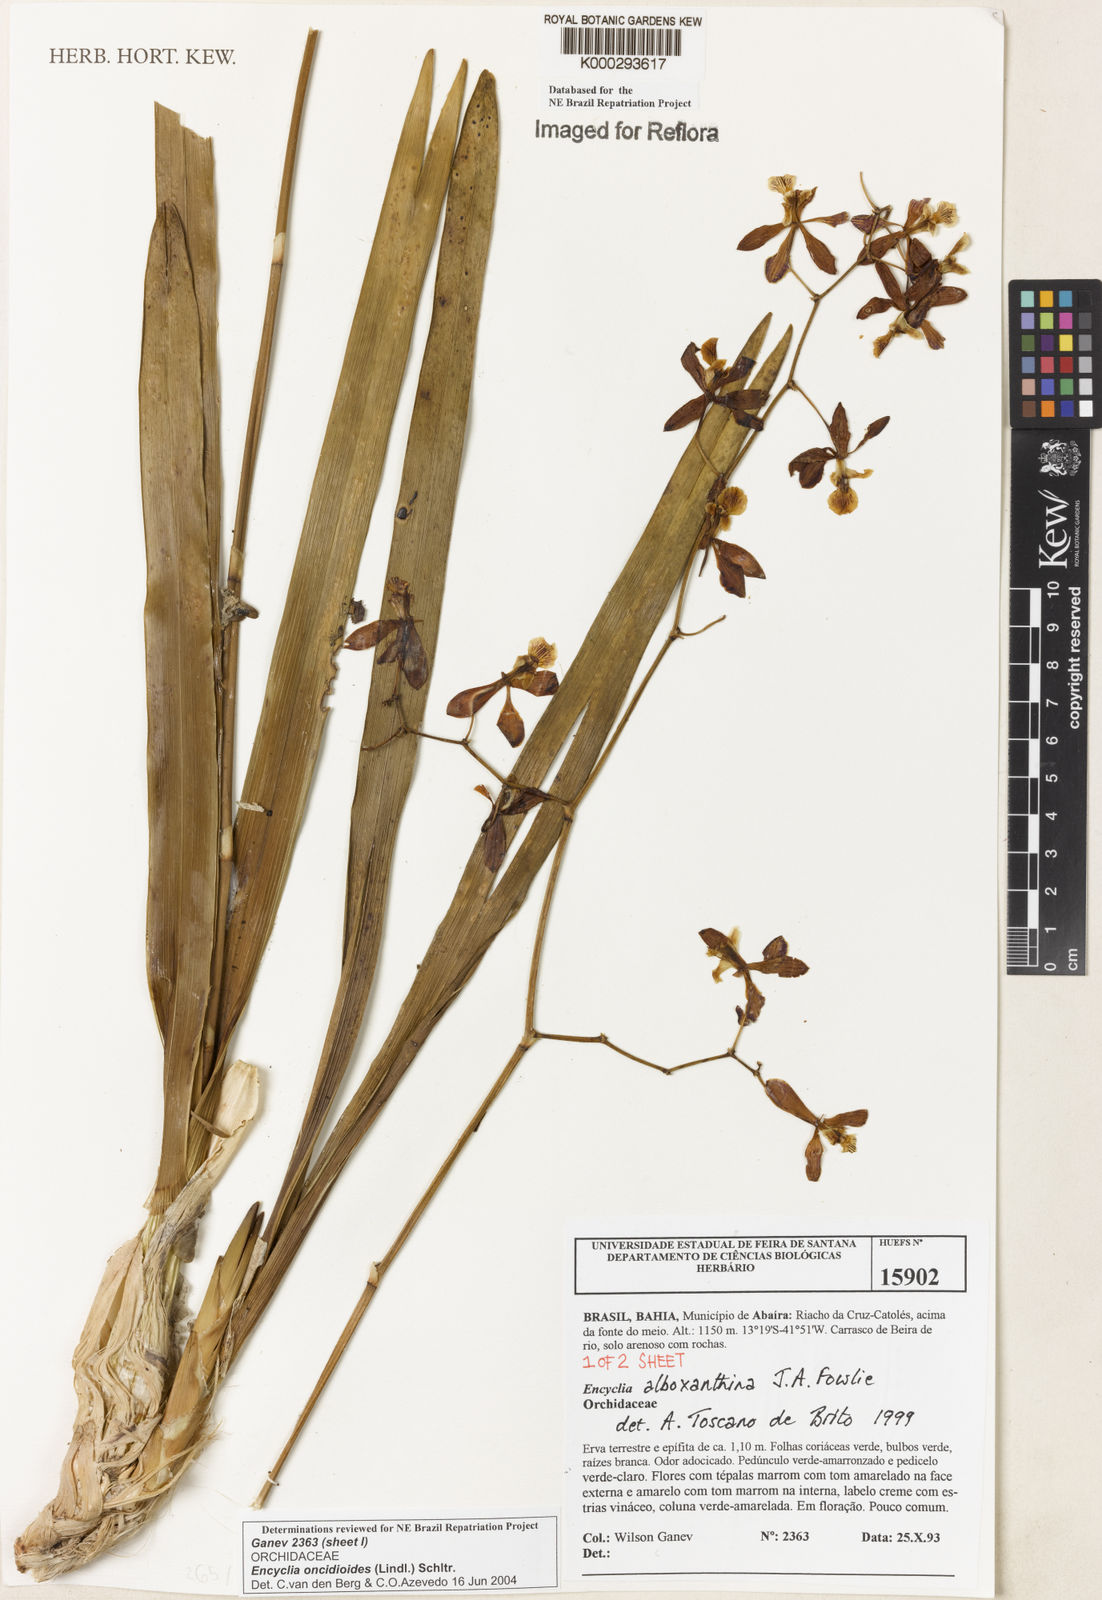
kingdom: Plantae
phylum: Tracheophyta
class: Liliopsida
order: Asparagales
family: Orchidaceae
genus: Encyclia
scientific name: Encyclia oncidioides
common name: Heavyfruit butterfly orchid
